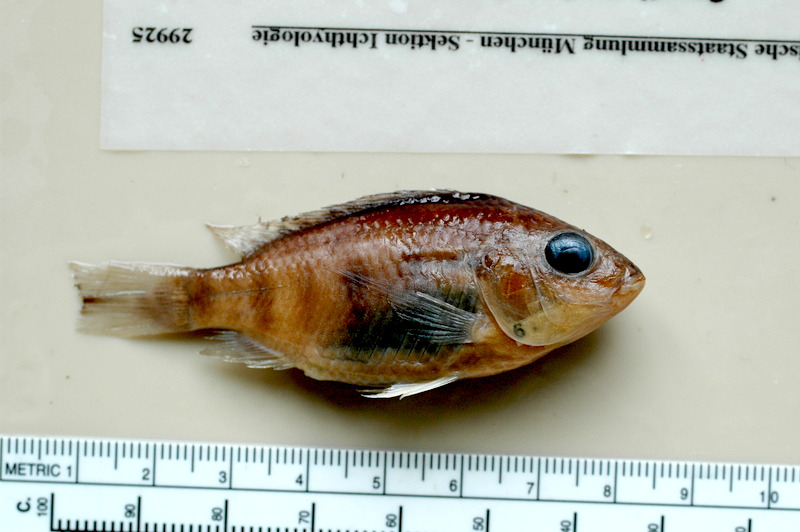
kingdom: Animalia
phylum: Chordata
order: Perciformes
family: Cichlidae
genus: Sarotherodon
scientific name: Sarotherodon knauerae
